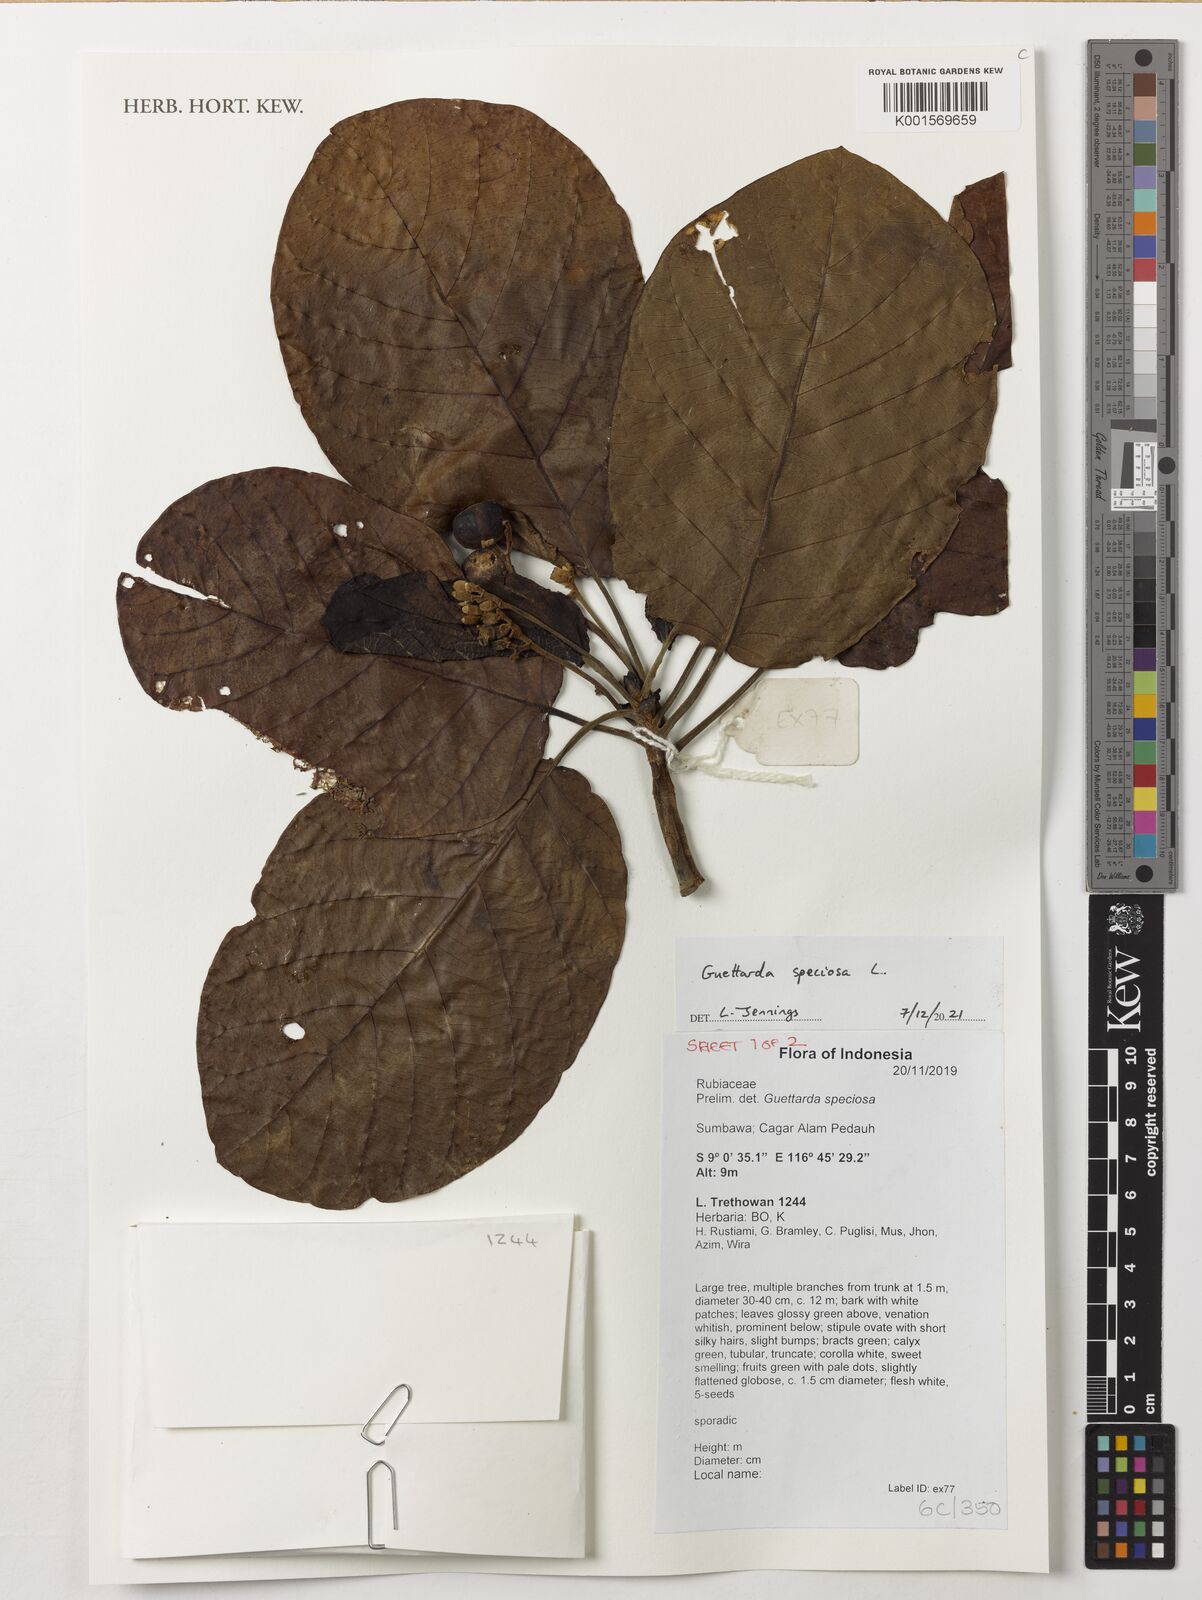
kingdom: Plantae
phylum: Tracheophyta
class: Magnoliopsida
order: Gentianales
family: Rubiaceae
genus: Guettarda
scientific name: Guettarda speciosa
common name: Sea randa
